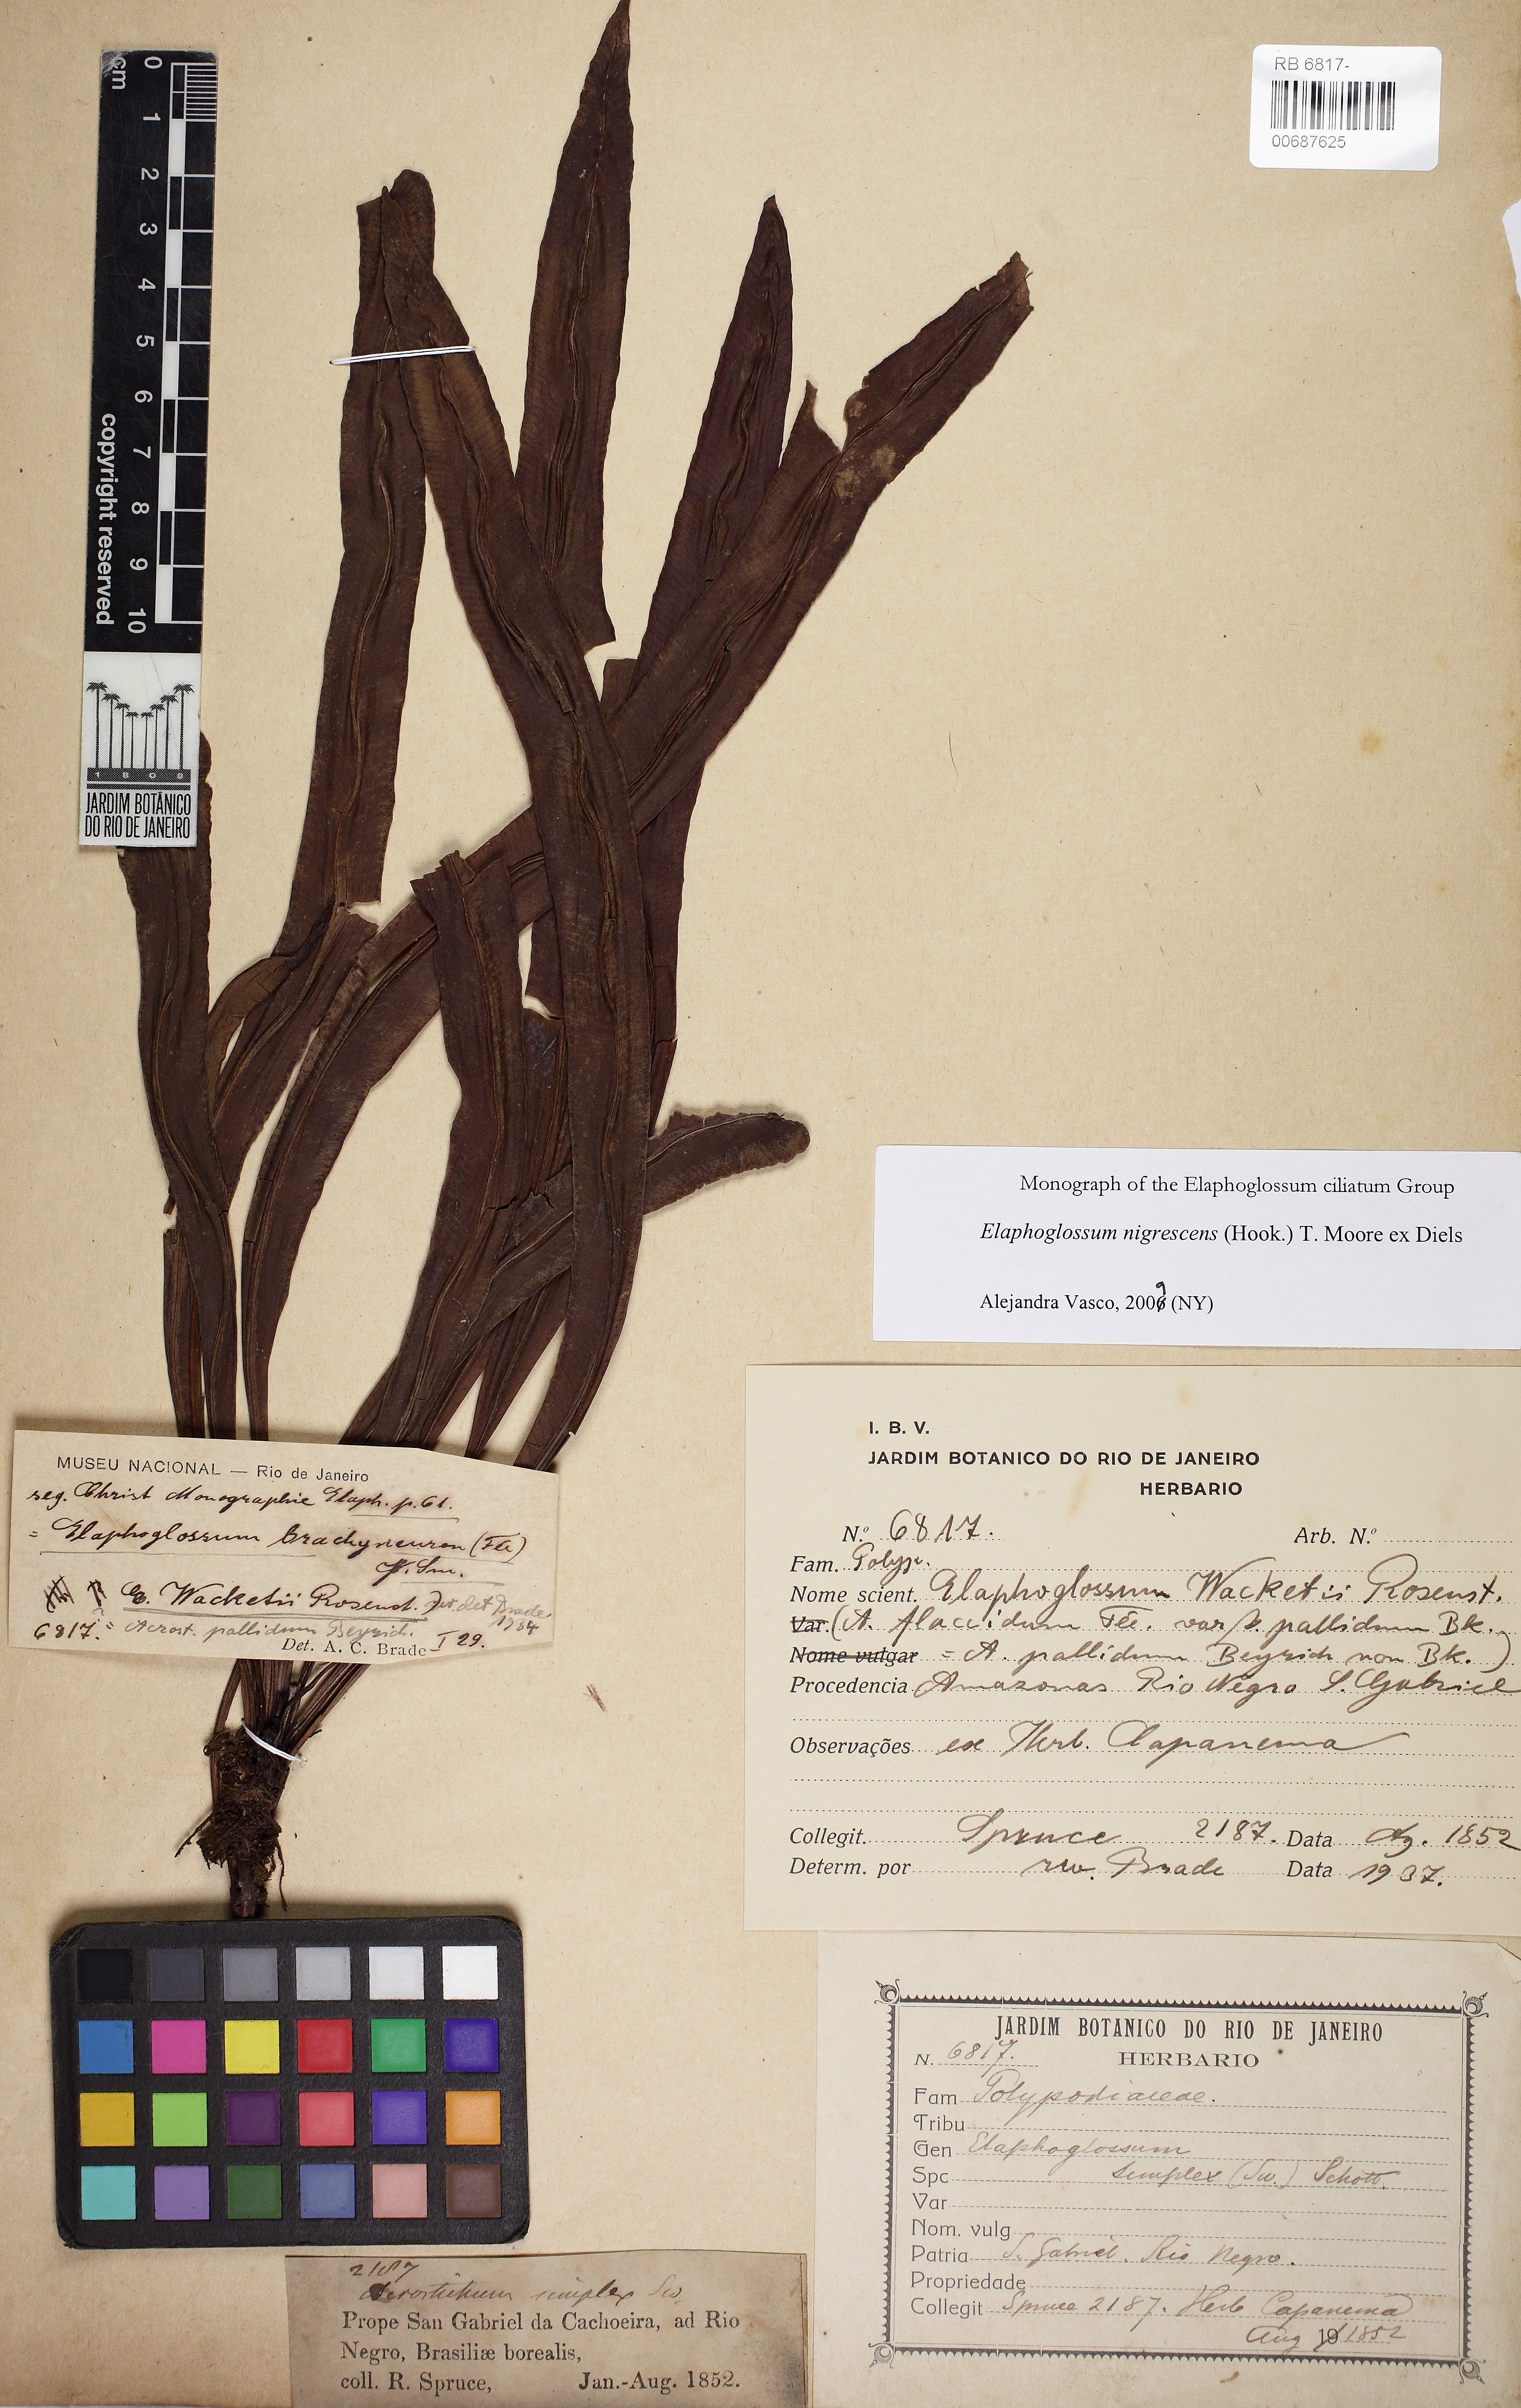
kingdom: Plantae
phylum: Tracheophyta
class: Polypodiopsida
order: Polypodiales
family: Dryopteridaceae
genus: Elaphoglossum
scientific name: Elaphoglossum nigrescens
